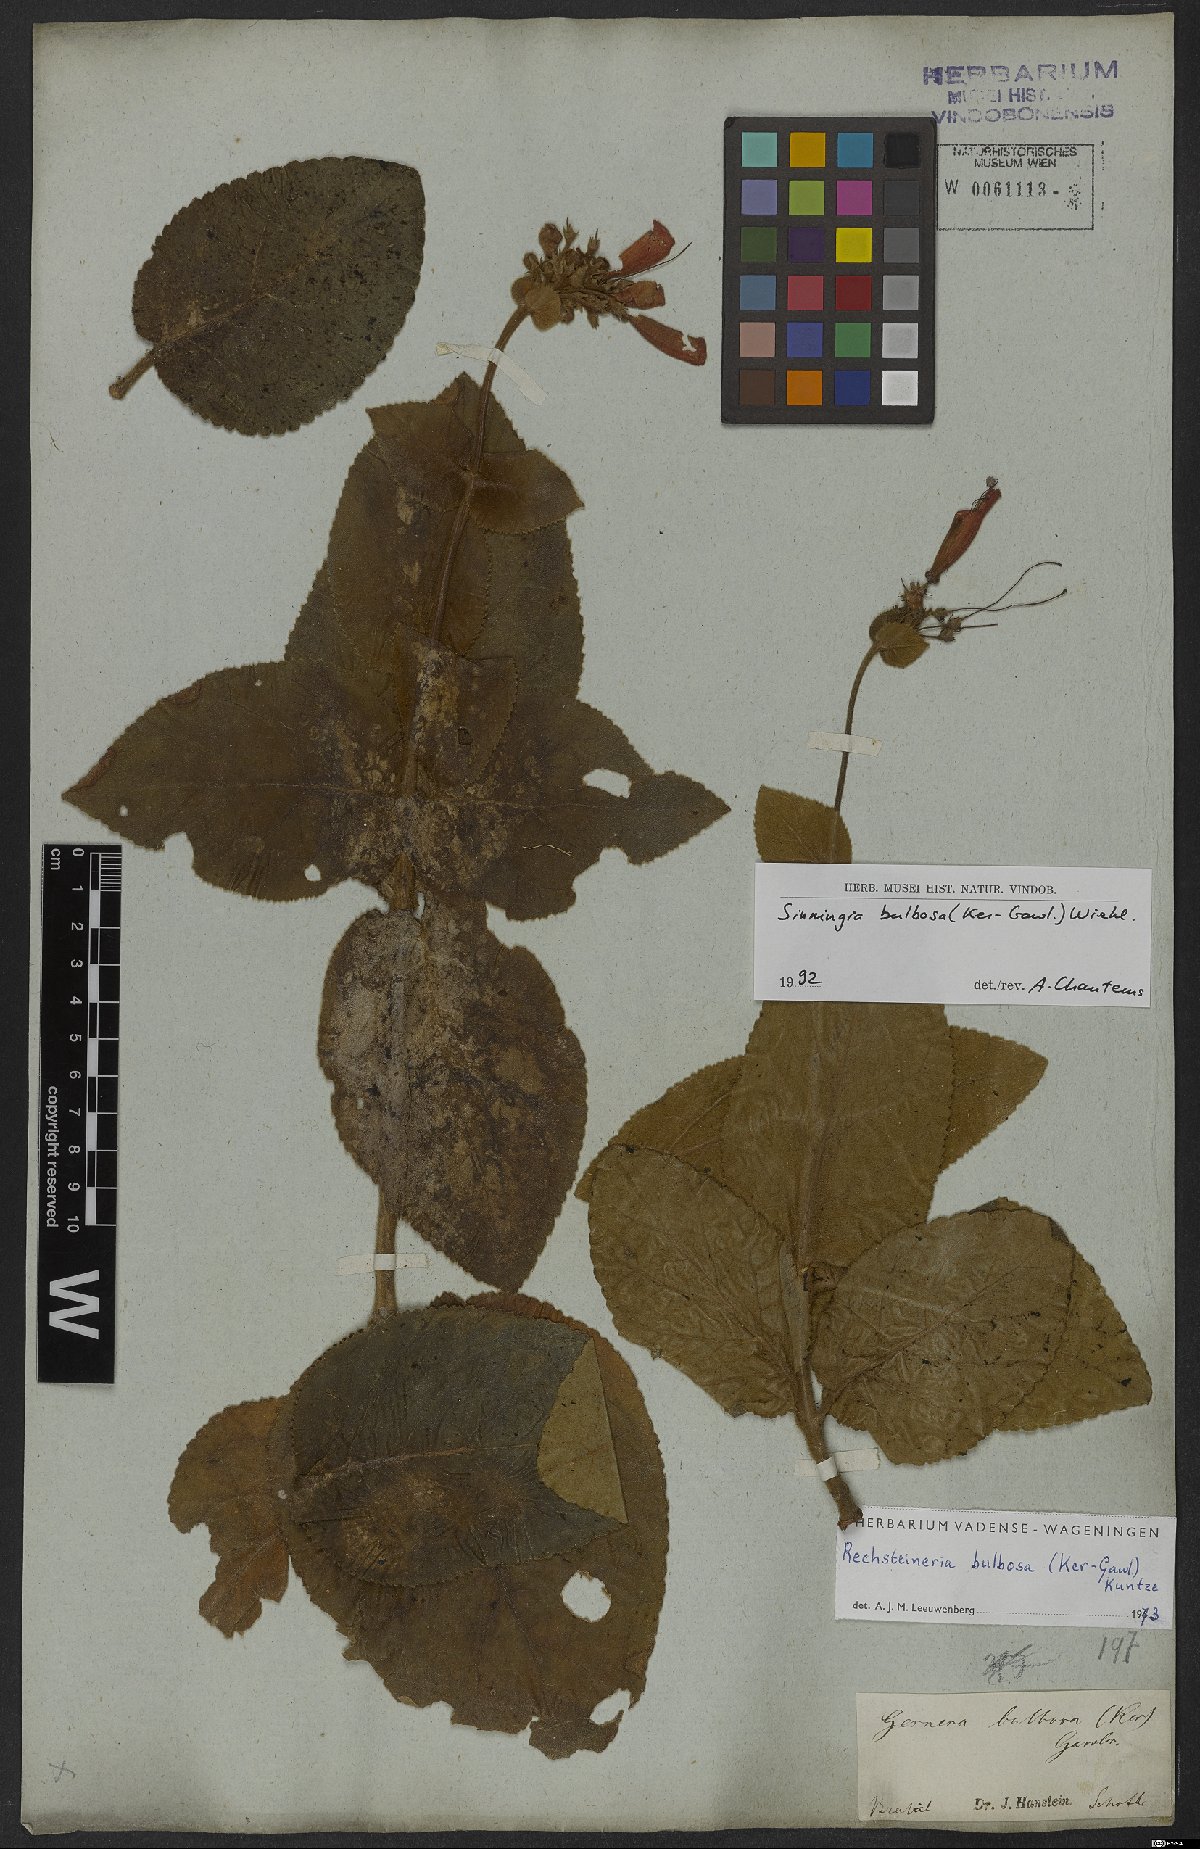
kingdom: Plantae
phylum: Tracheophyta
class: Magnoliopsida
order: Lamiales
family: Gesneriaceae
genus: Sinningia
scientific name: Sinningia bulbosa
